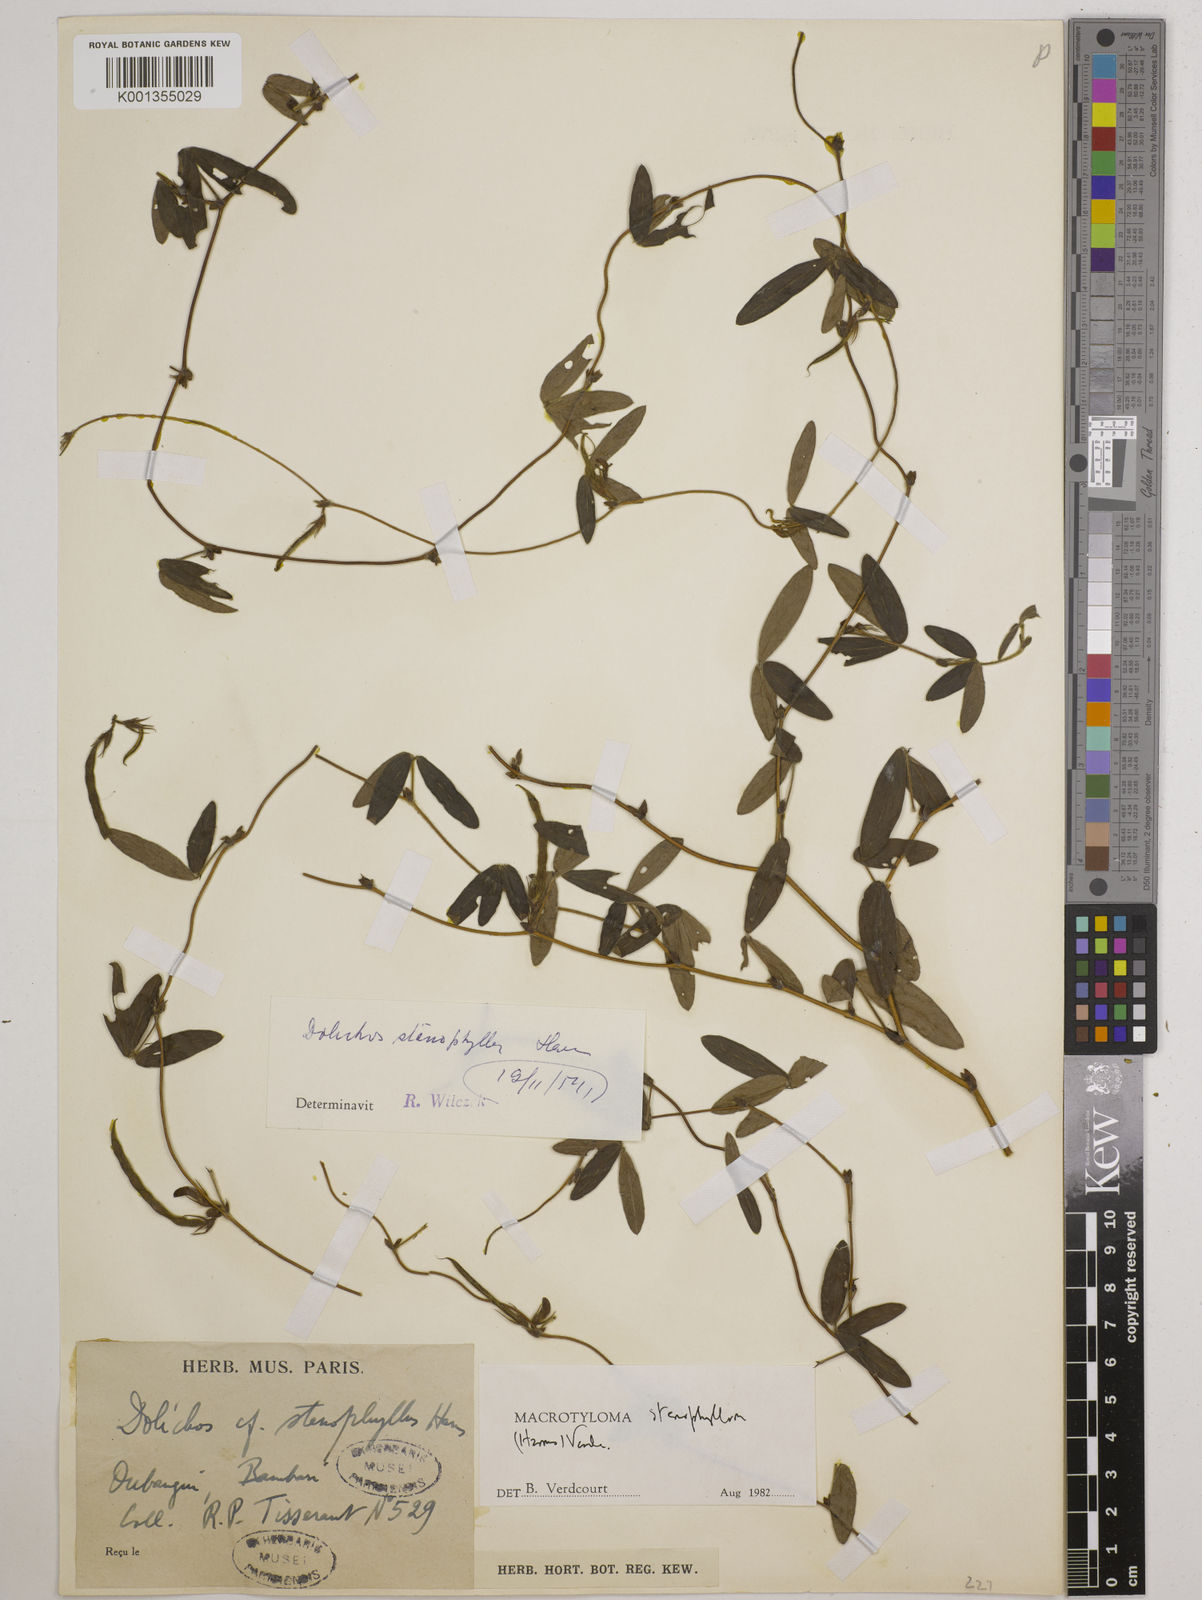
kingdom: Plantae
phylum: Tracheophyta
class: Magnoliopsida
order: Fabales
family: Fabaceae
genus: Macrotyloma
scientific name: Macrotyloma stenophyllum
